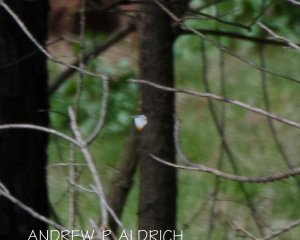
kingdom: Animalia
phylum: Arthropoda
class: Insecta
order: Lepidoptera
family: Pieridae
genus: Anthocharis
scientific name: Anthocharis midea
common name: Falcate Orangetip
